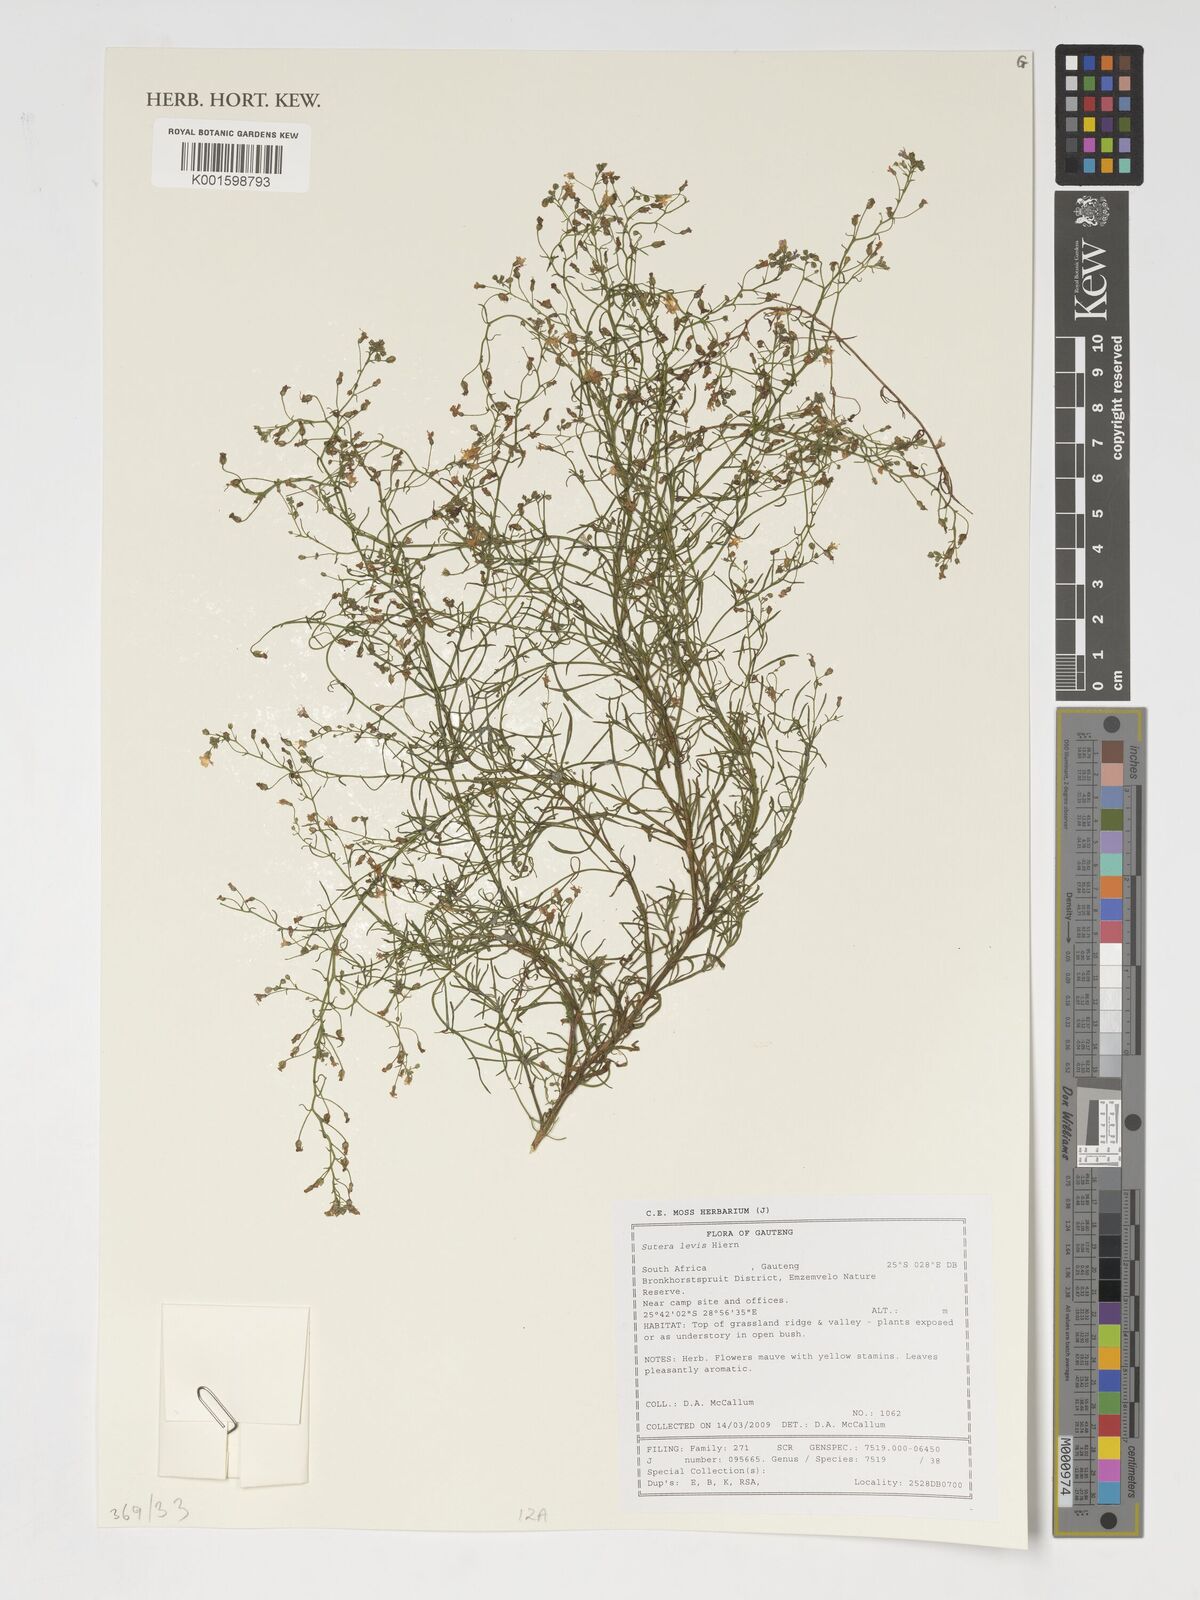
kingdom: Plantae
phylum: Tracheophyta
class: Magnoliopsida
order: Lamiales
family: Scrophulariaceae
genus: Chaenostoma
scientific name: Chaenostoma leve
